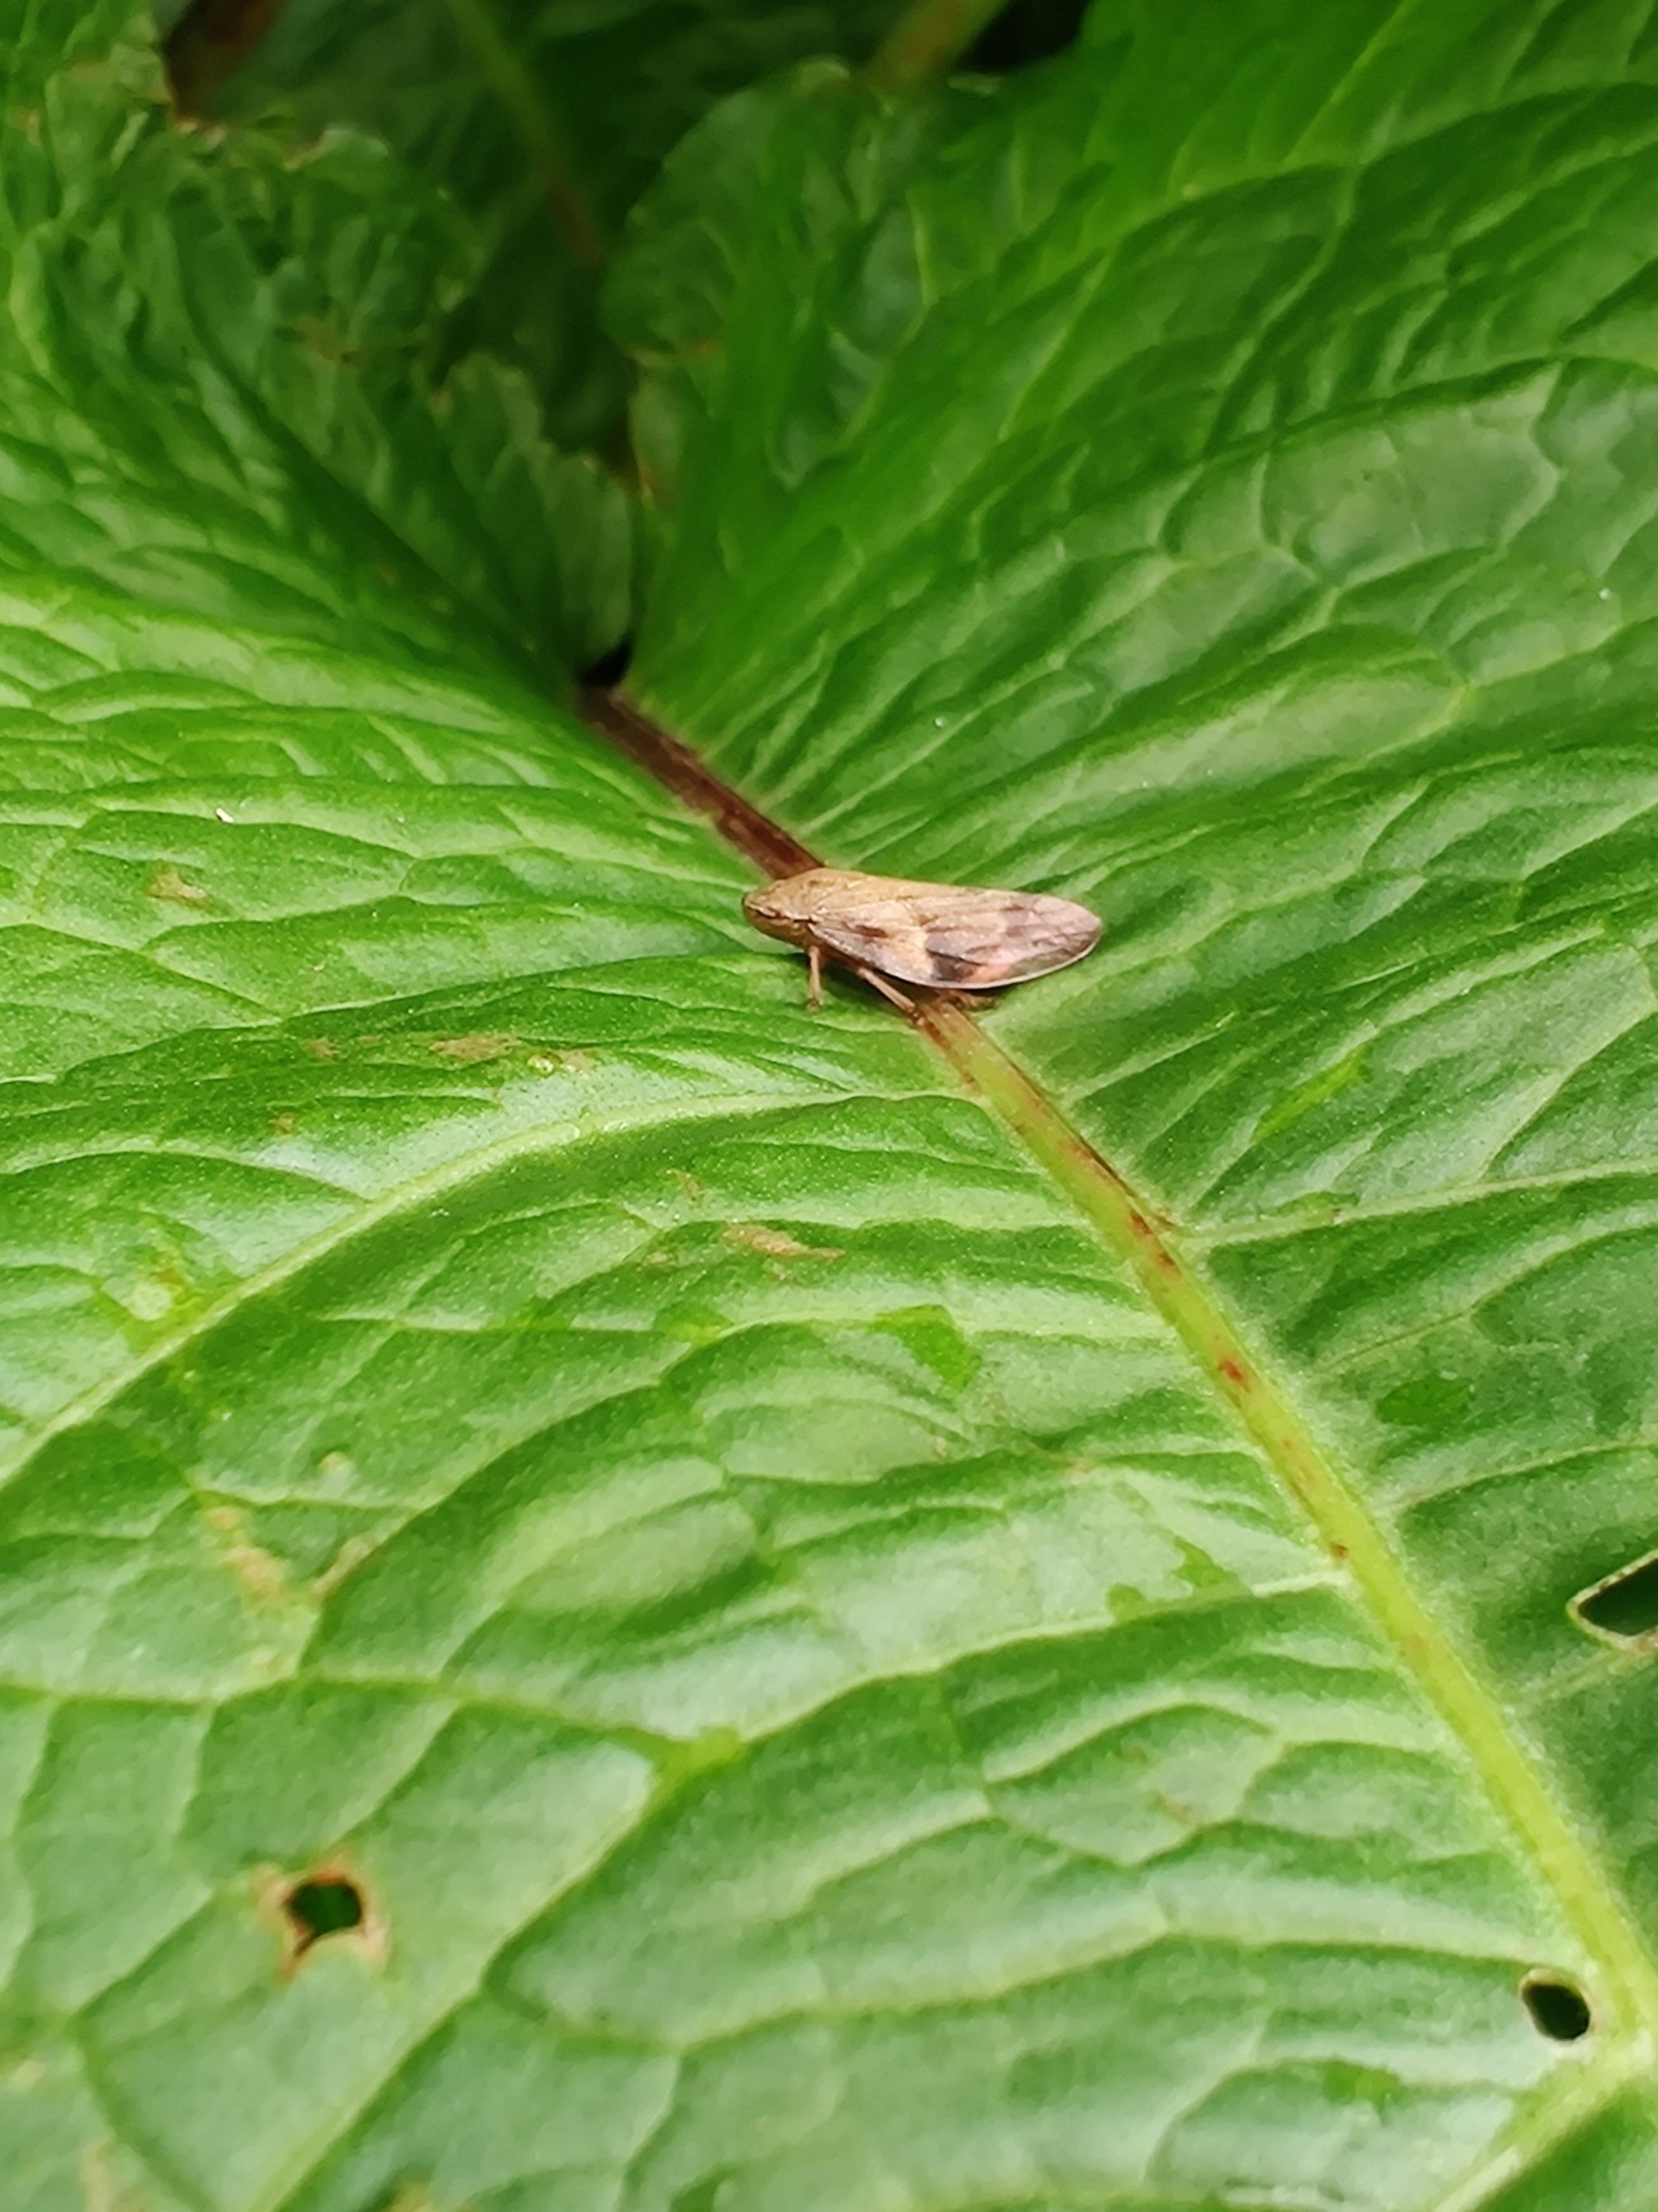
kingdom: Animalia
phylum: Arthropoda
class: Insecta
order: Hemiptera
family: Aphrophoridae
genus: Aphrophora
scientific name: Aphrophora alni
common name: Stor skumcikade
